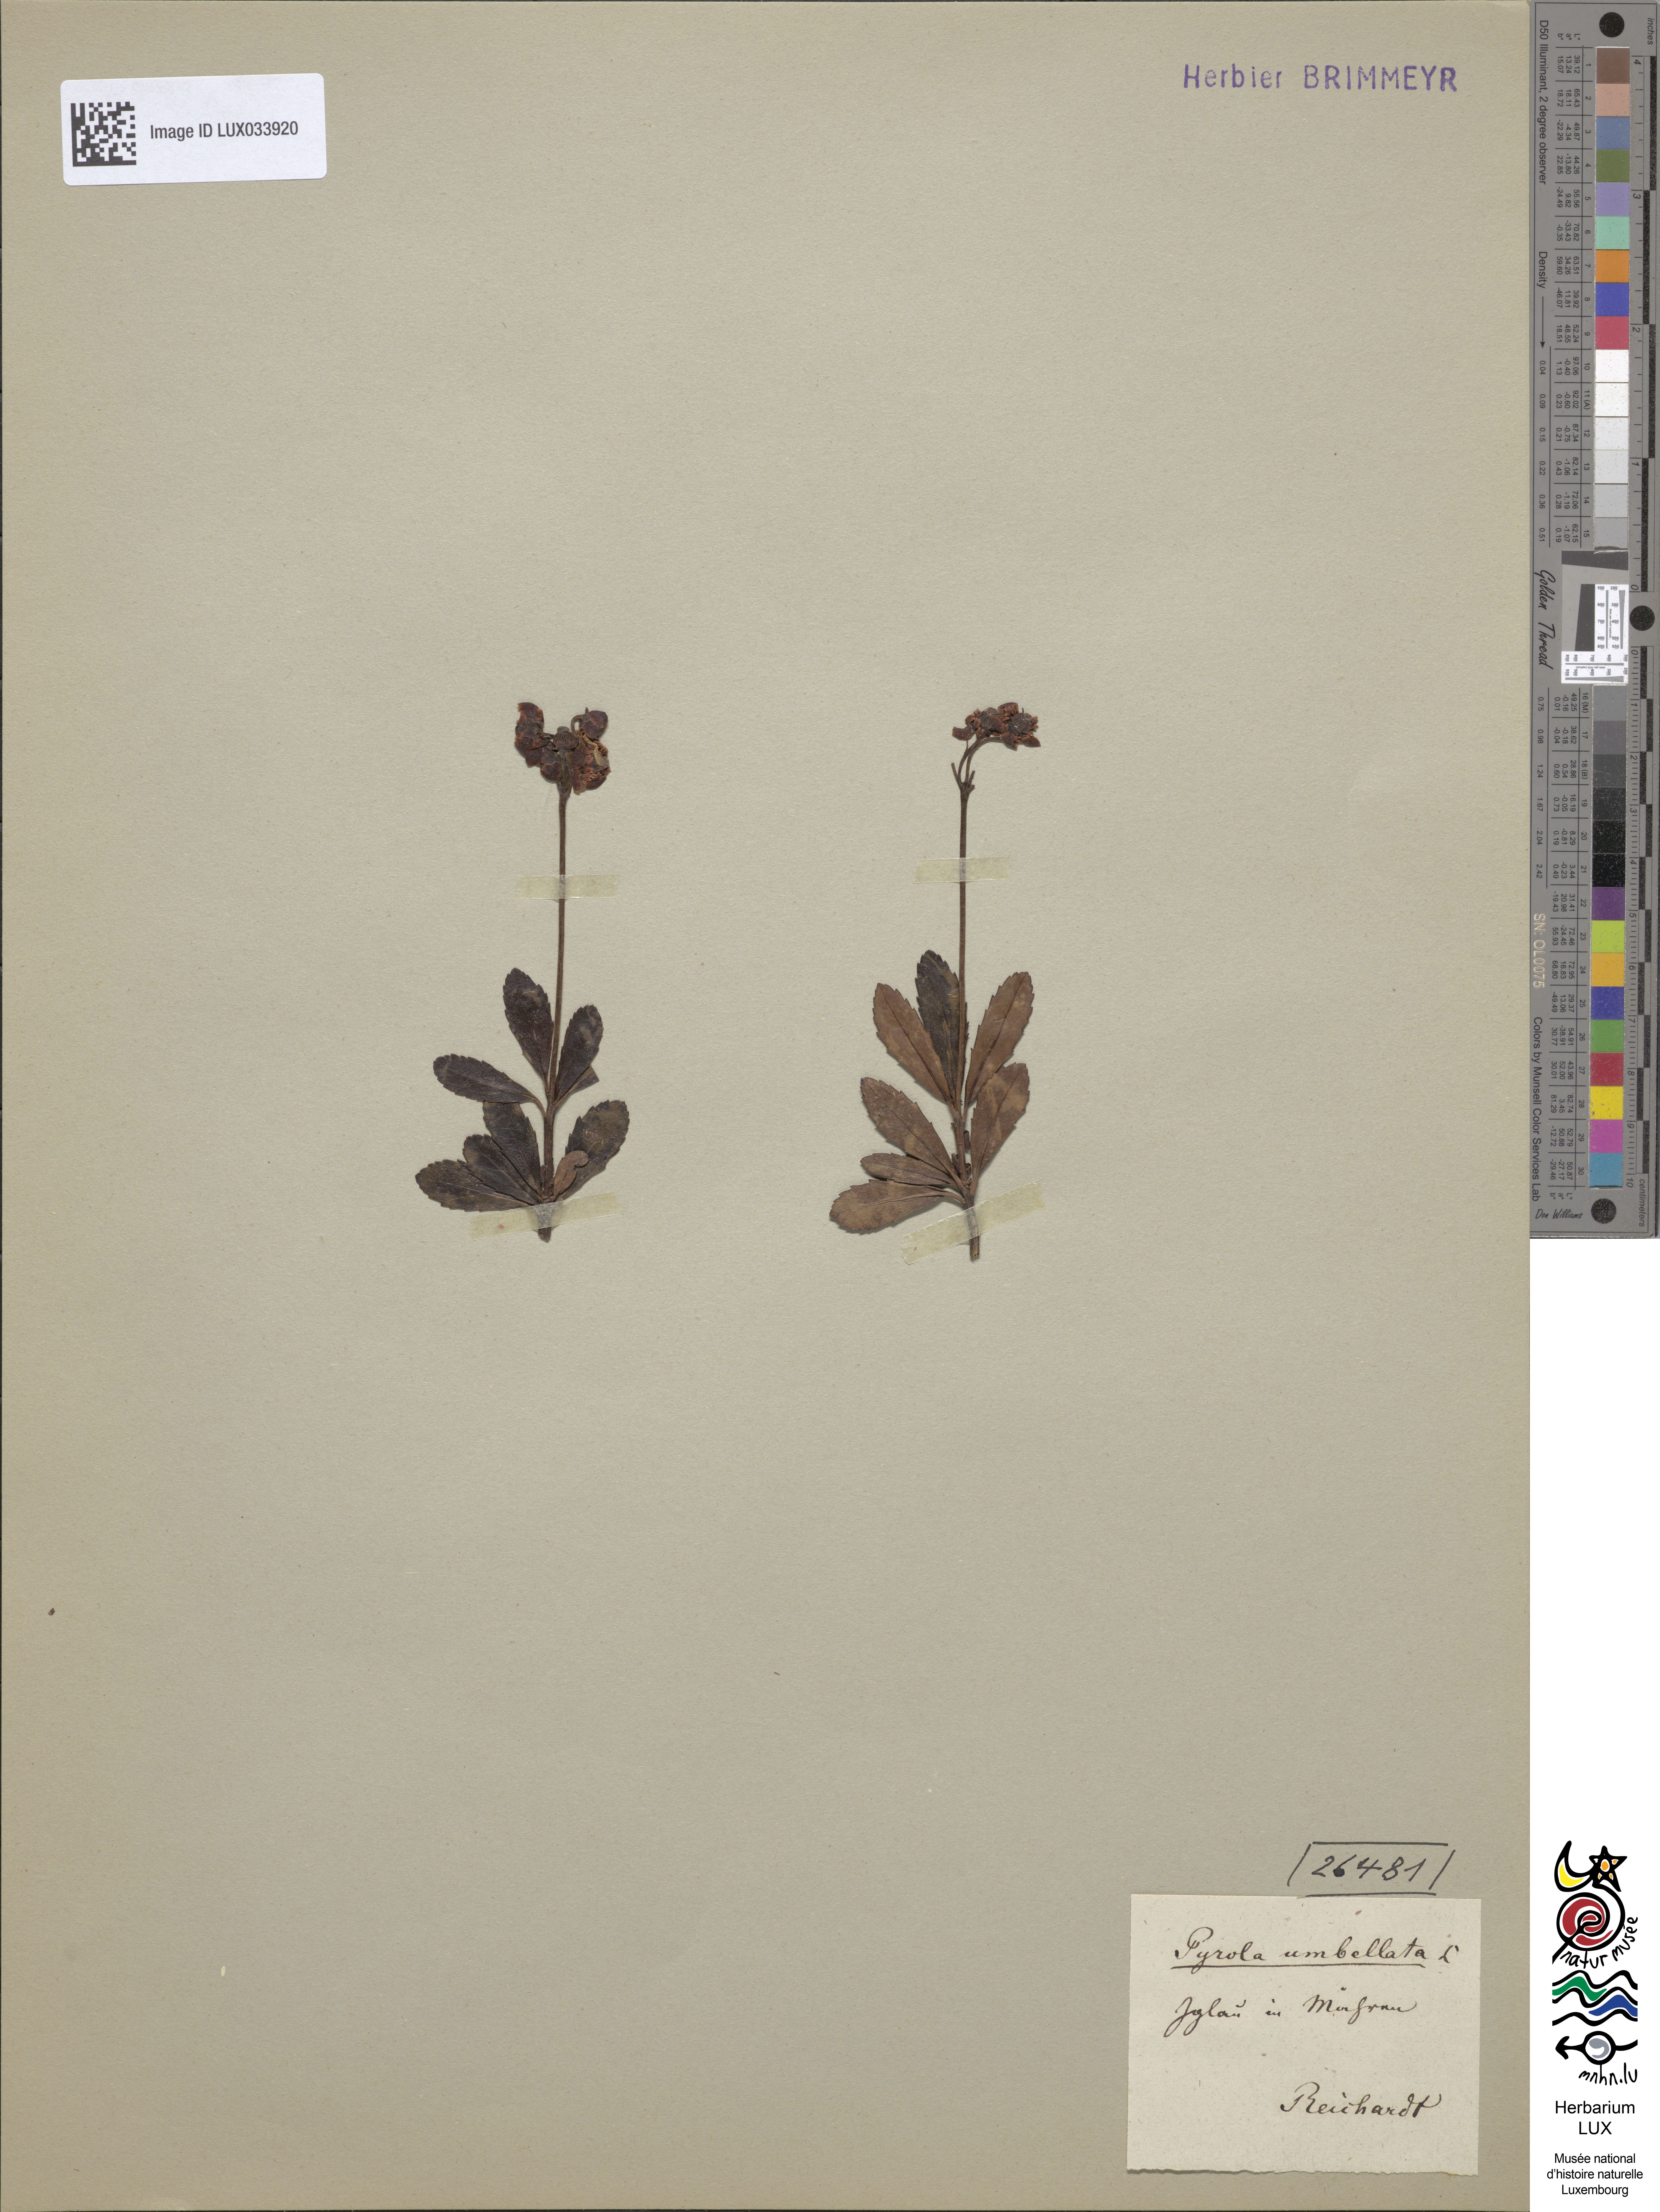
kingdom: Plantae
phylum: Tracheophyta
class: Magnoliopsida
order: Ericales
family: Ericaceae
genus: Chimaphila
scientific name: Chimaphila umbellata
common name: Pipsissewa
